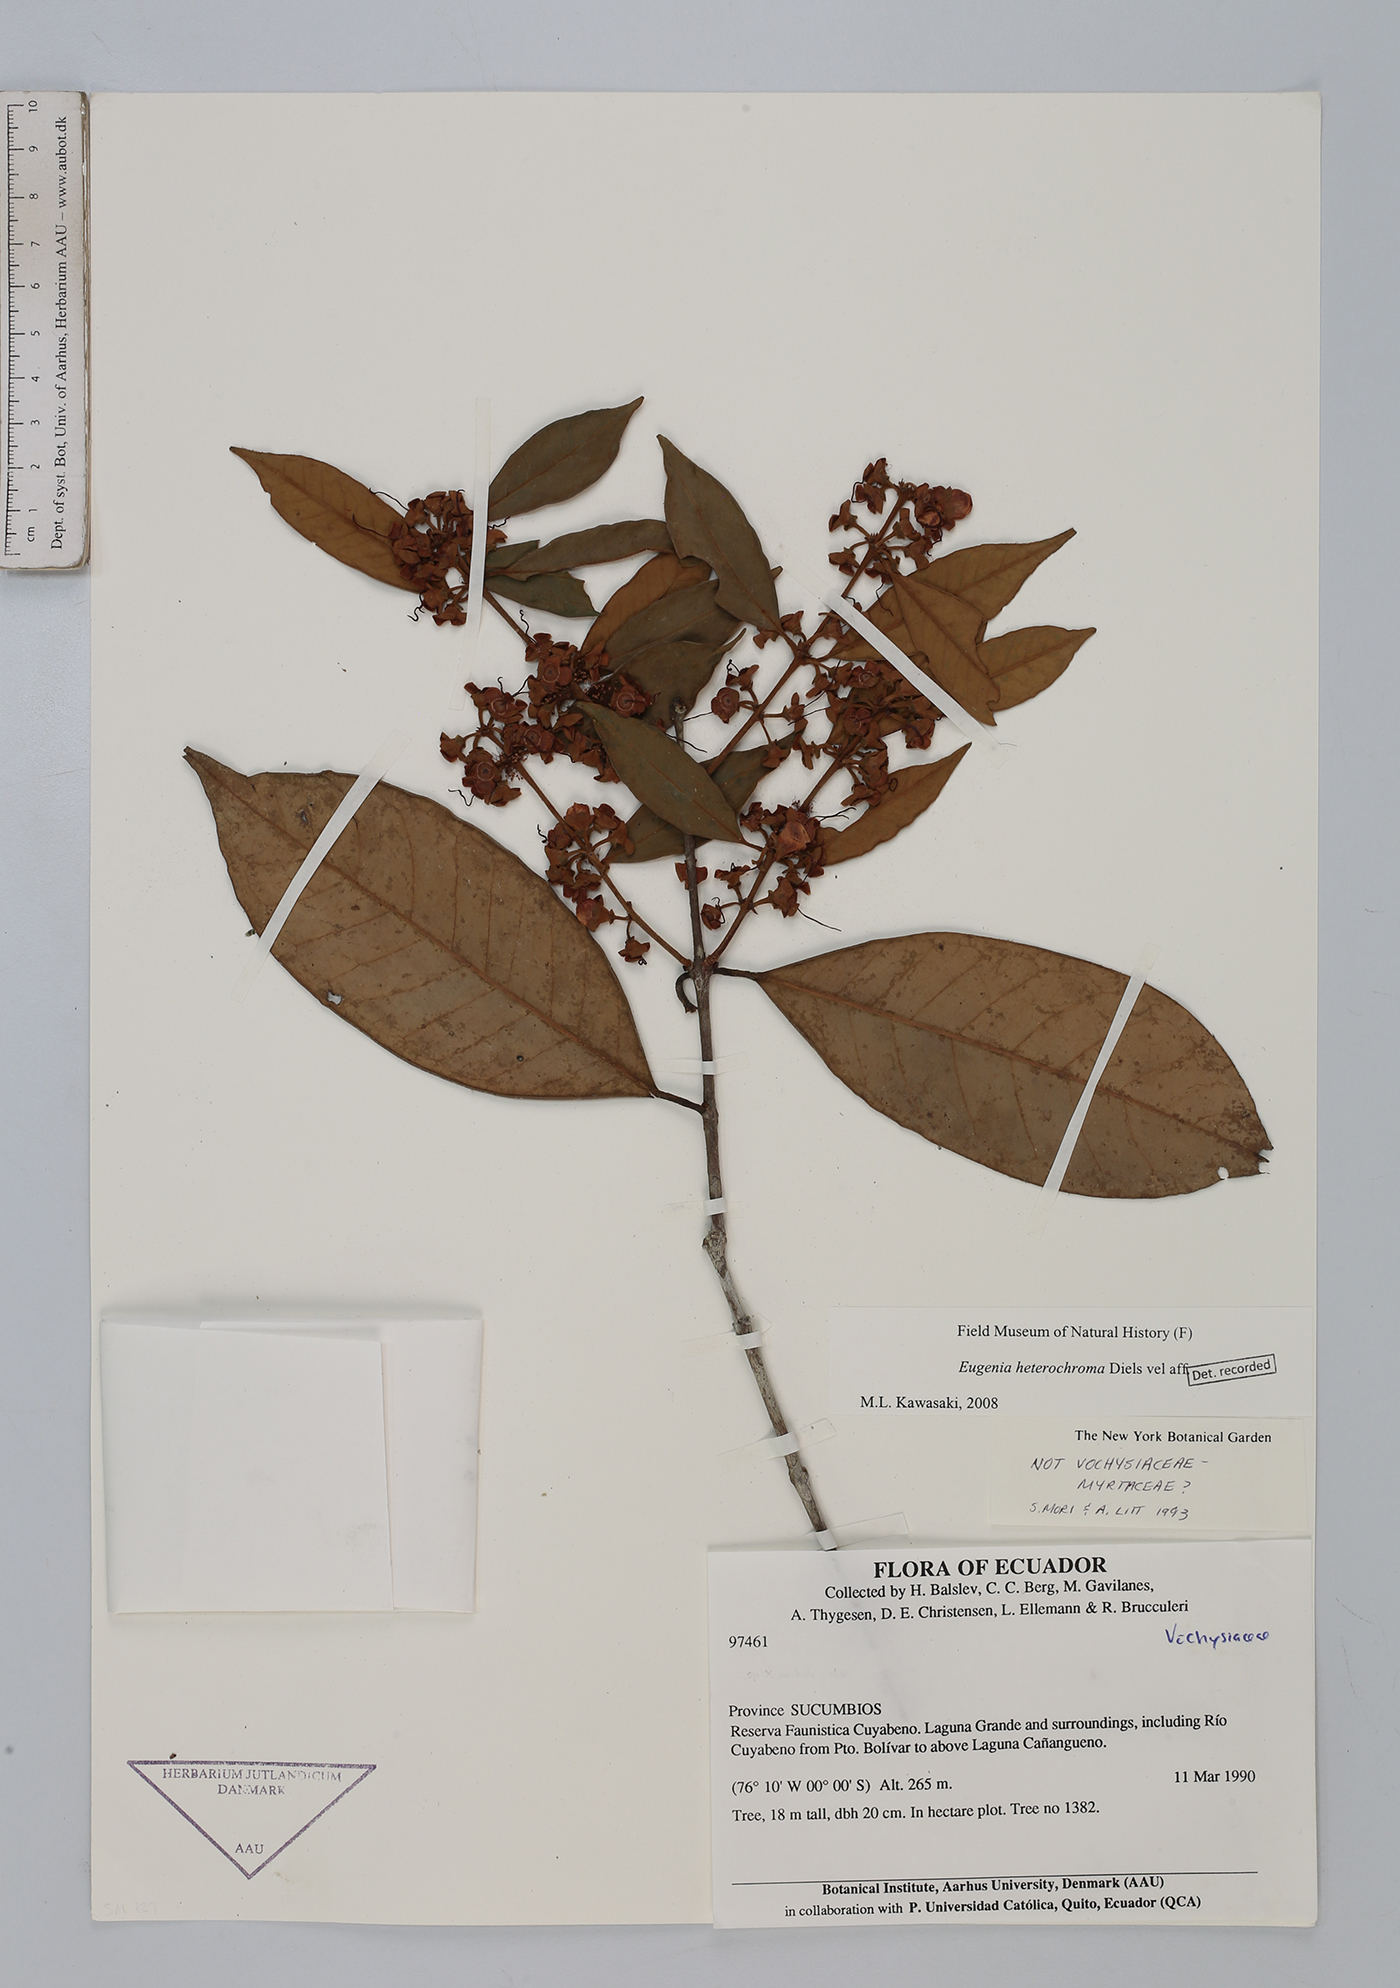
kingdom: Plantae
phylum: Tracheophyta
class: Magnoliopsida
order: Myrtales
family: Myrtaceae
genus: Eugenia
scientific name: Eugenia heterochroma
